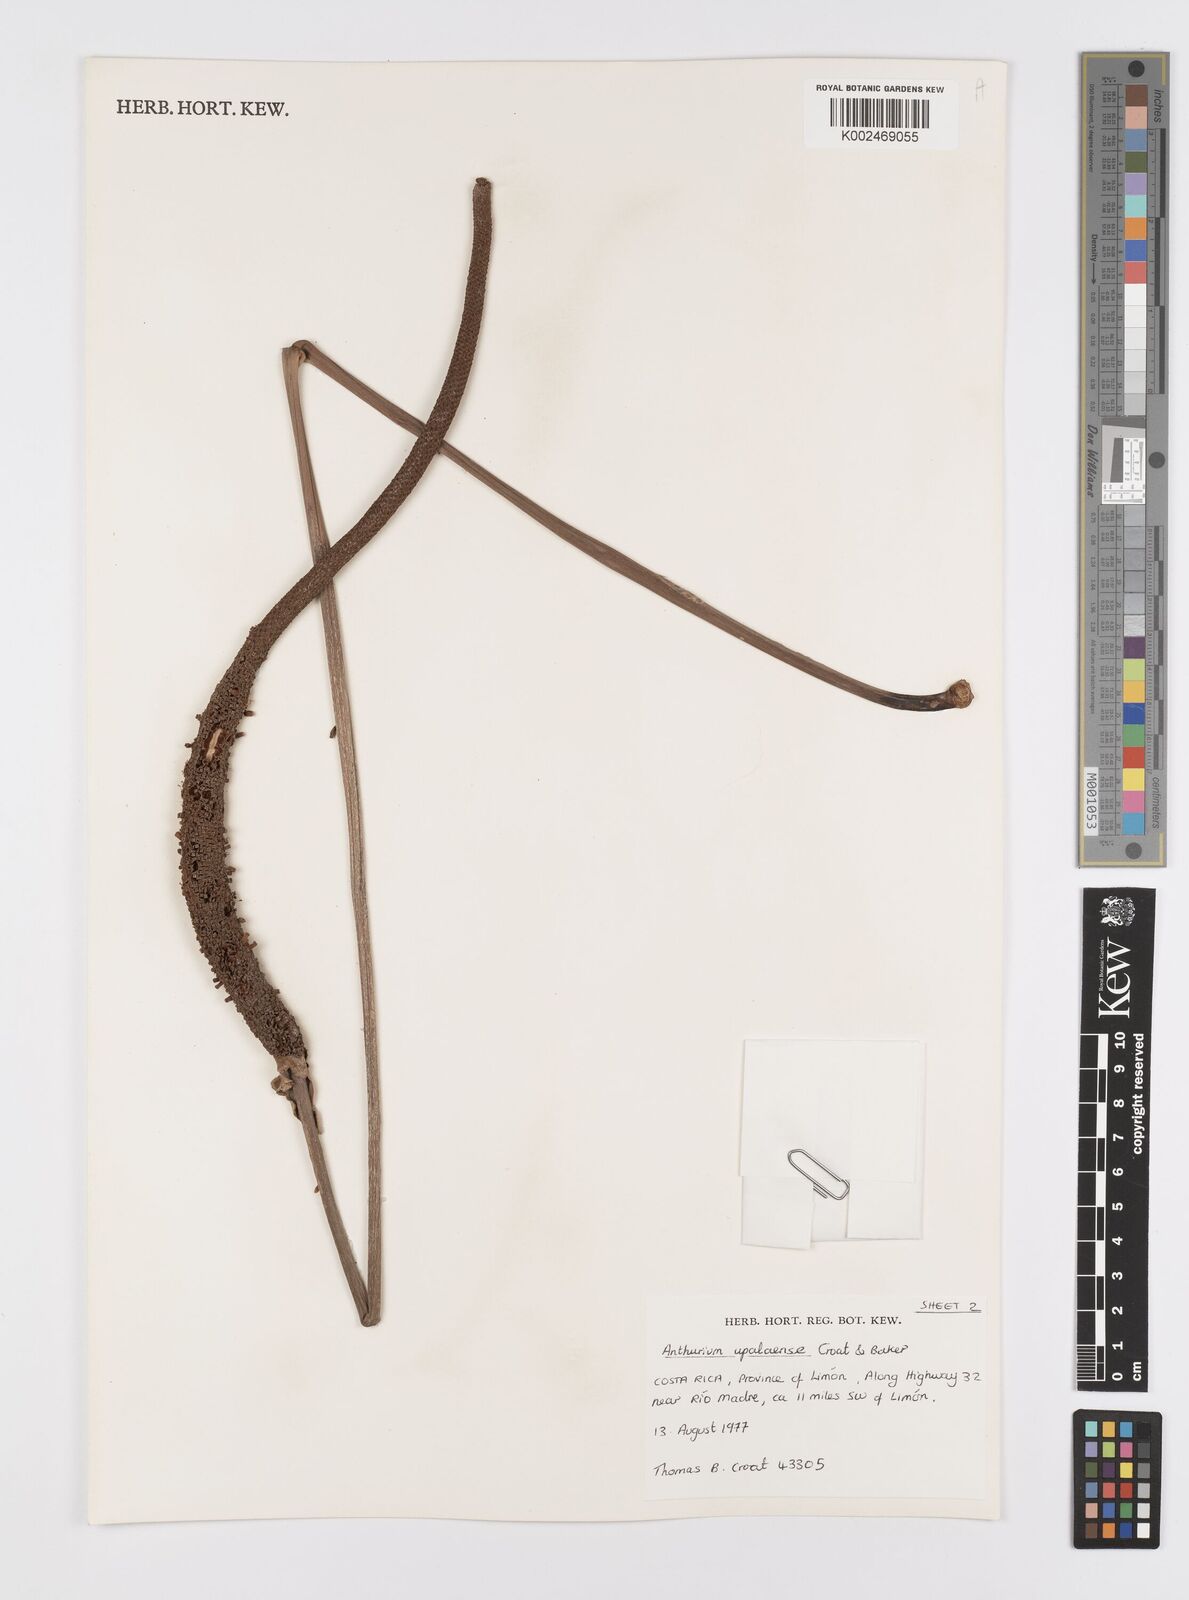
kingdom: Plantae
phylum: Tracheophyta
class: Liliopsida
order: Alismatales
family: Araceae
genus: Anthurium
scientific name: Anthurium upalaense
